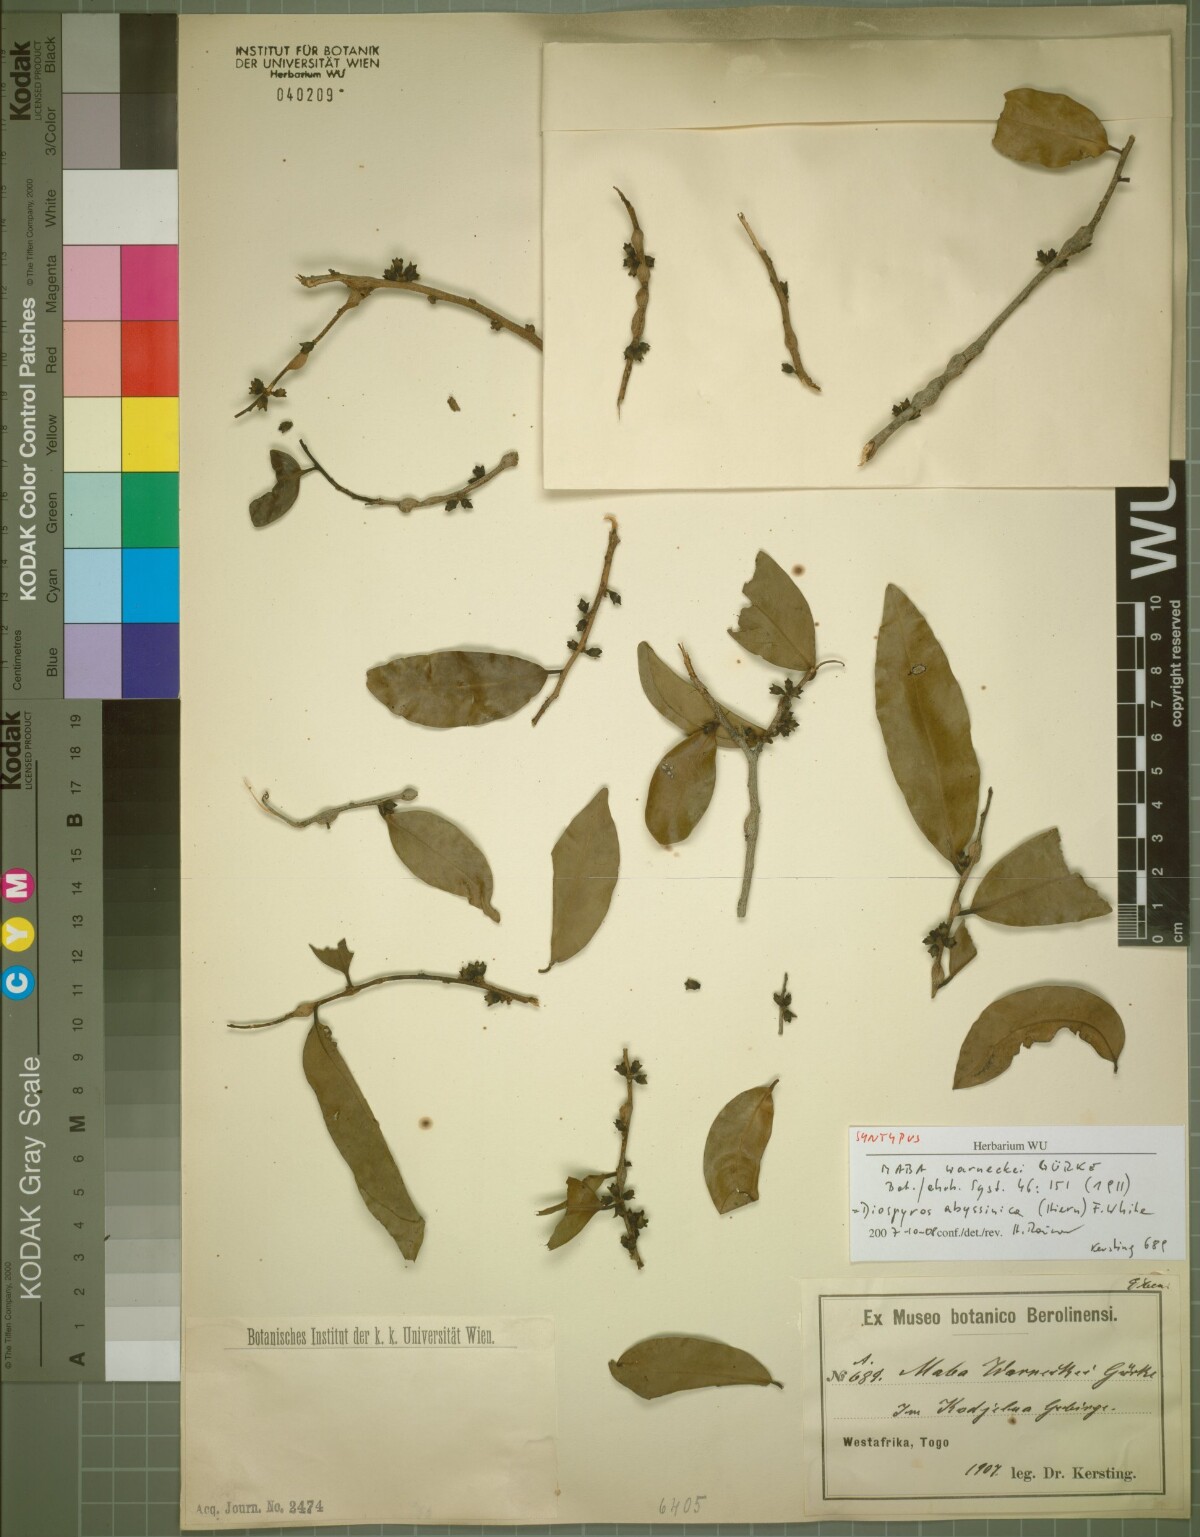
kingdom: Plantae
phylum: Tracheophyta
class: Magnoliopsida
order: Ericales
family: Ebenaceae
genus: Diospyros
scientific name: Diospyros abyssinica
